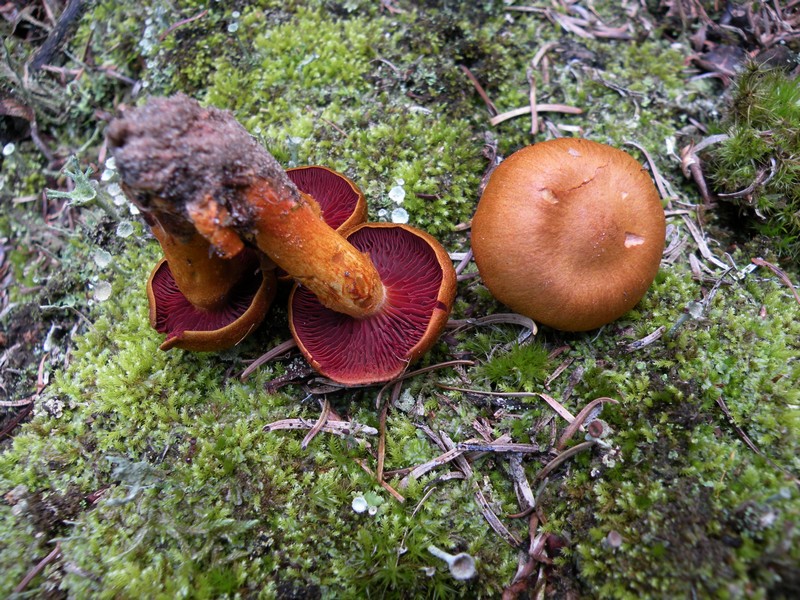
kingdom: Fungi
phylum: Basidiomycota
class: Agaricomycetes
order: Agaricales
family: Cortinariaceae
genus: Cortinarius
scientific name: Cortinarius purpureus
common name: brunrød slørhat
